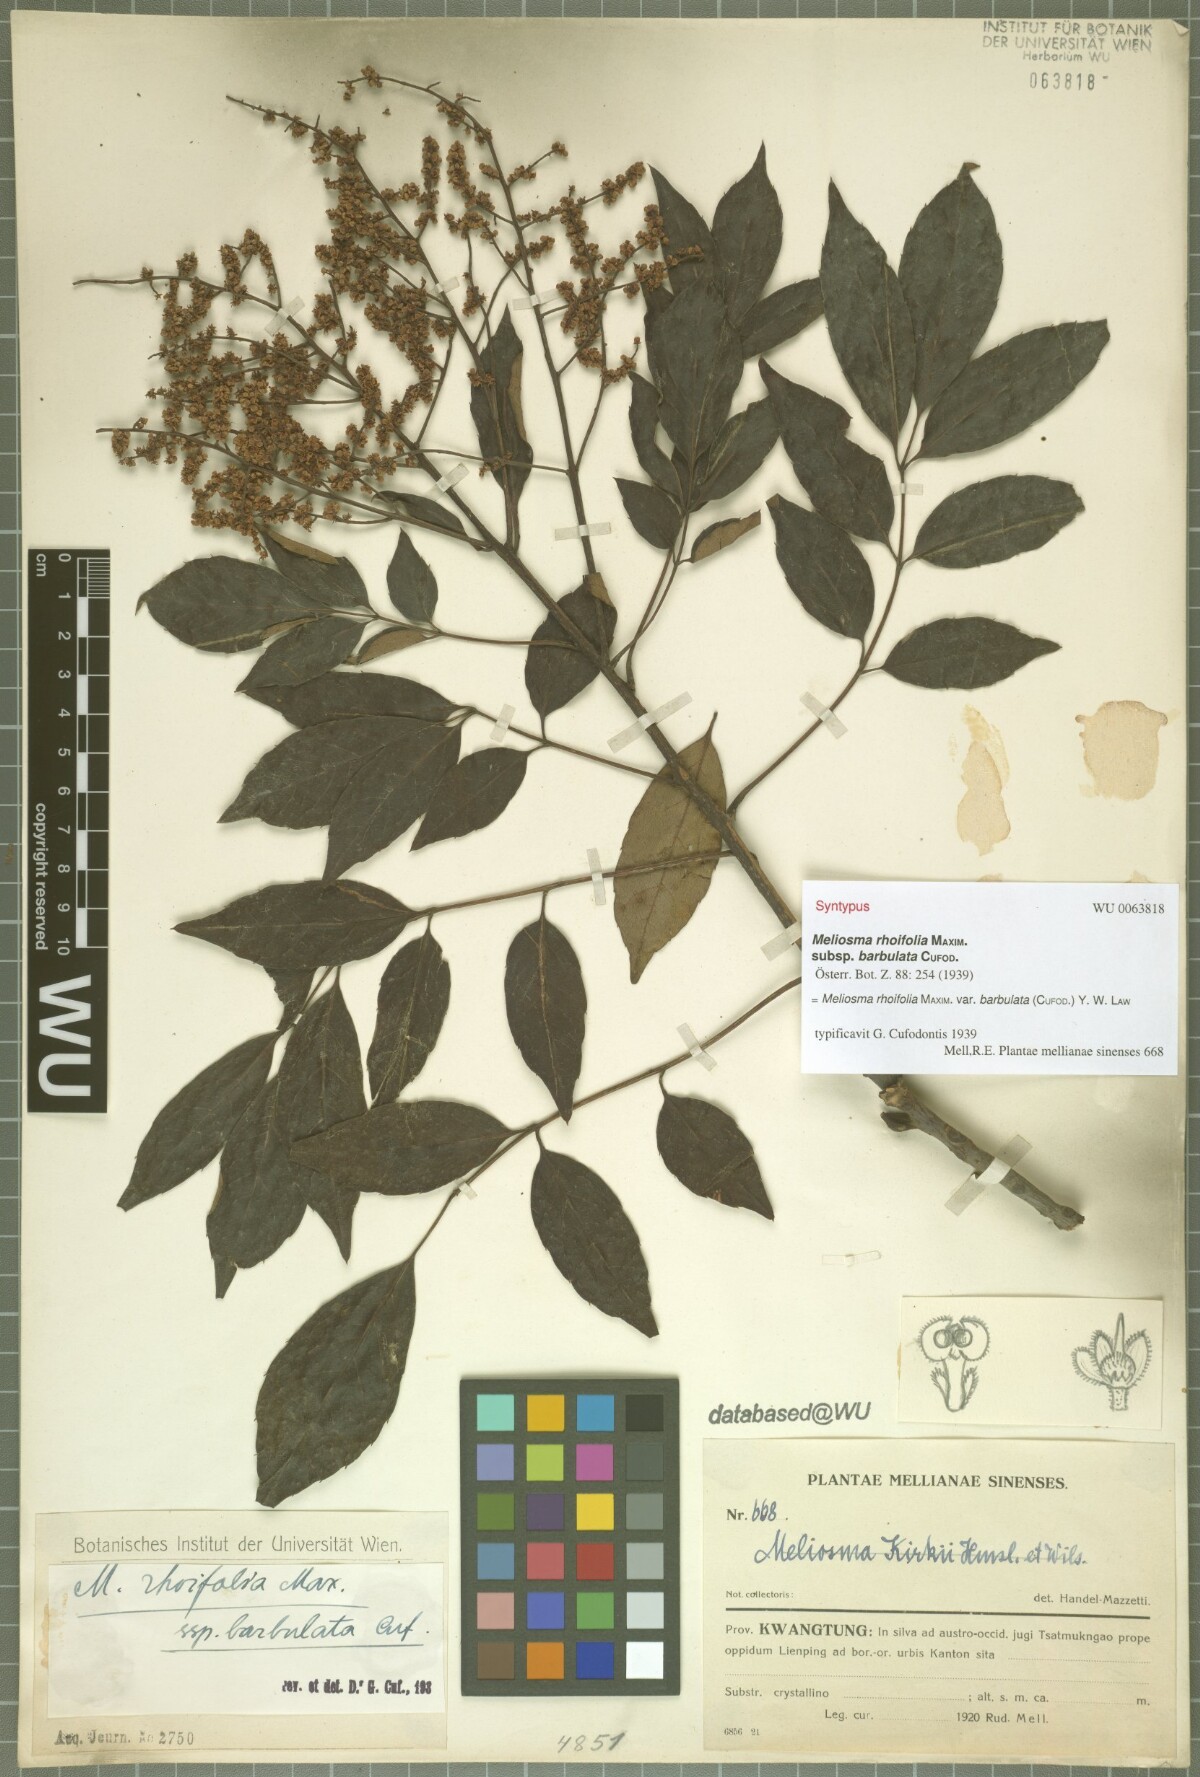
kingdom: Plantae
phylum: Tracheophyta
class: Magnoliopsida
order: Proteales
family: Sabiaceae
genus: Meliosma
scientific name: Meliosma rhoifolia
